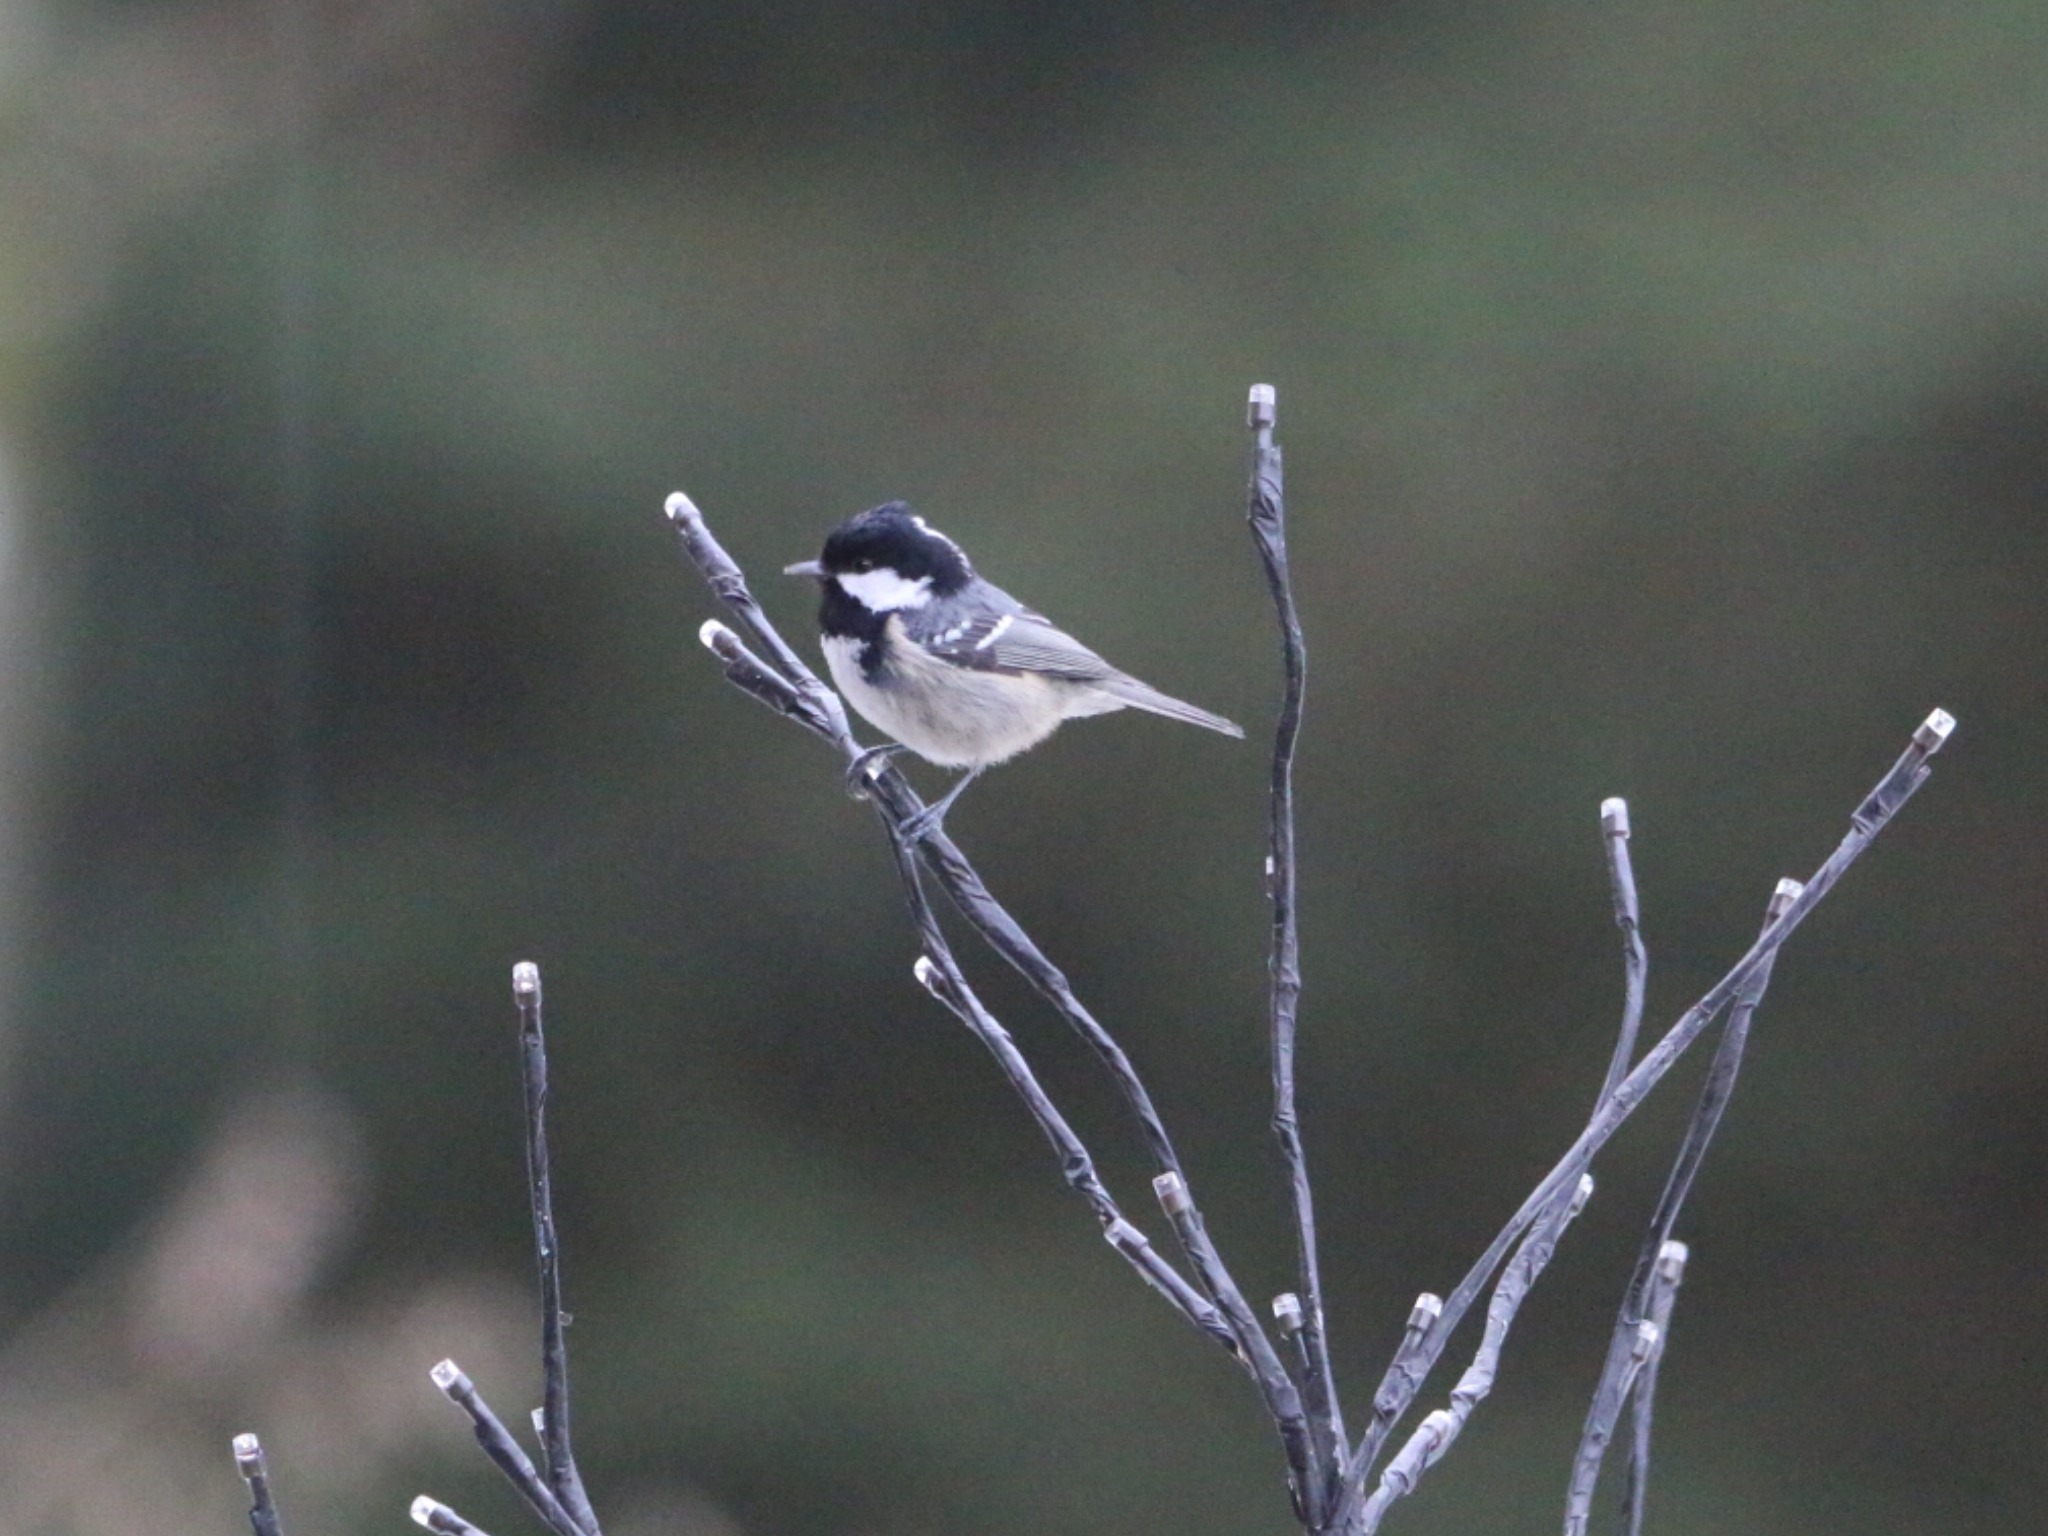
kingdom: Animalia
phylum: Chordata
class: Aves
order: Passeriformes
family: Paridae
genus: Periparus
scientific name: Periparus ater
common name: Sortmejse
